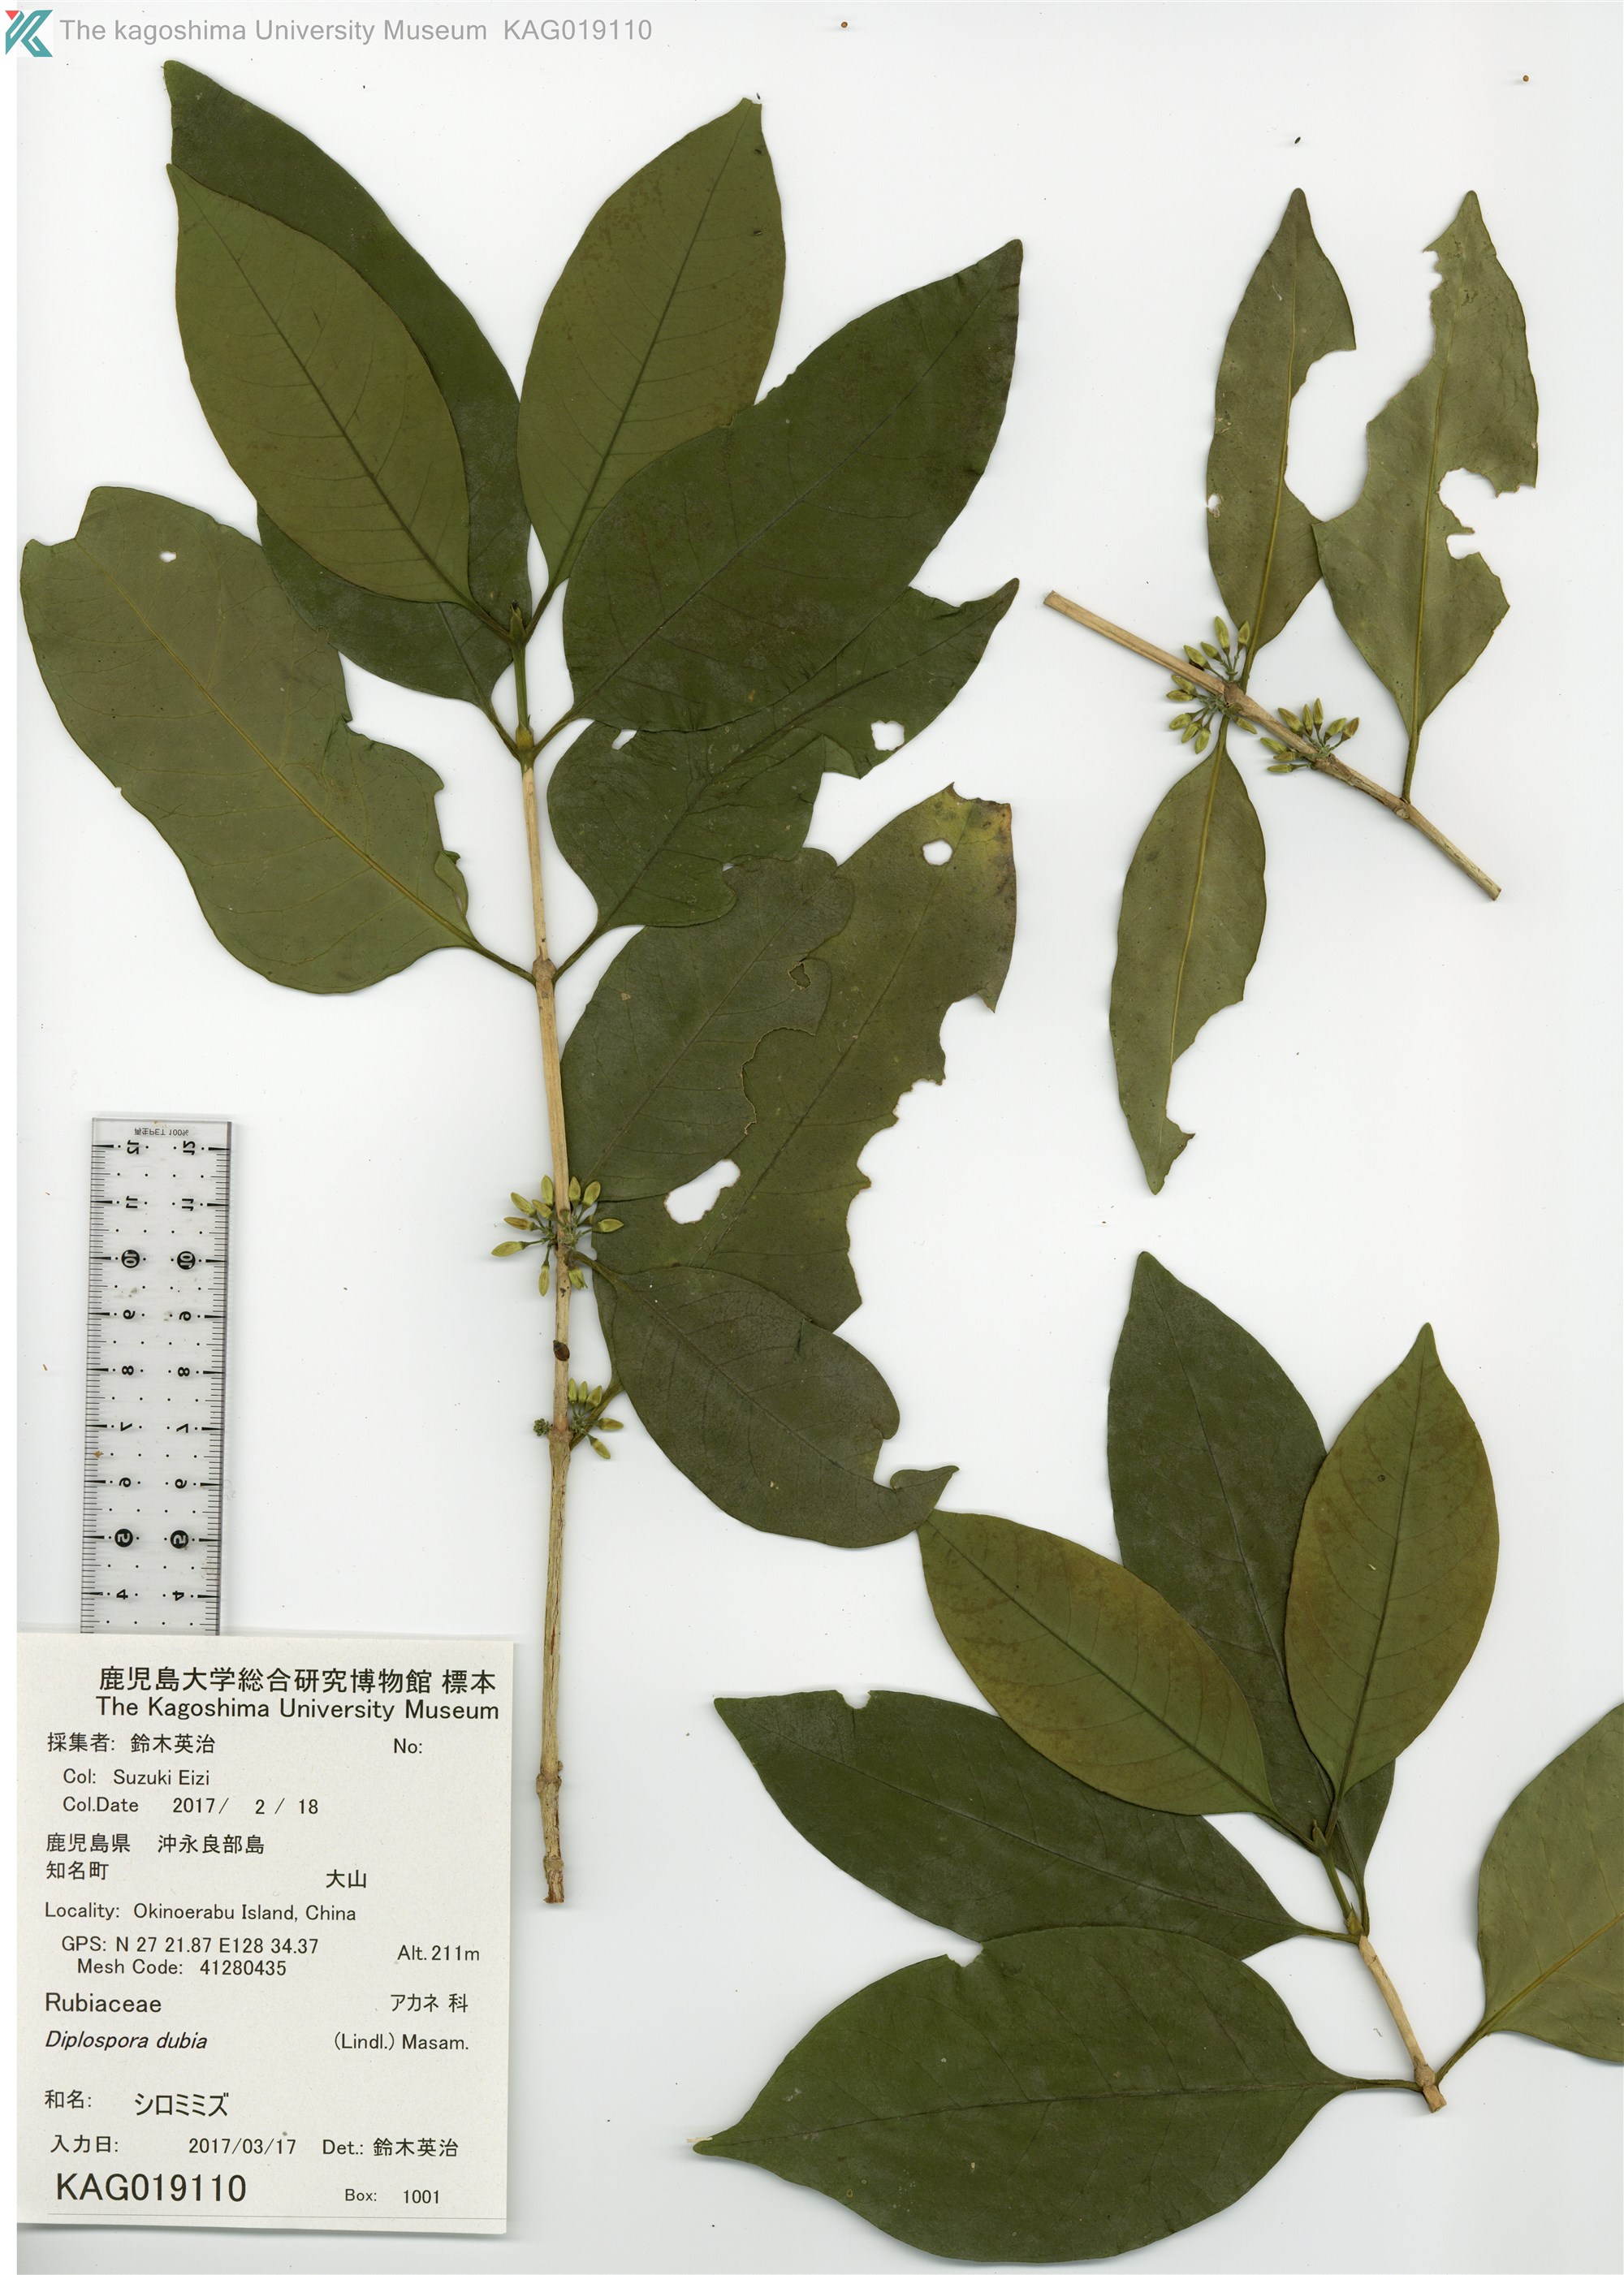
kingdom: Plantae
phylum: Tracheophyta
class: Magnoliopsida
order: Gentianales
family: Rubiaceae
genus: Diplospora
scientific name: Diplospora dubia
